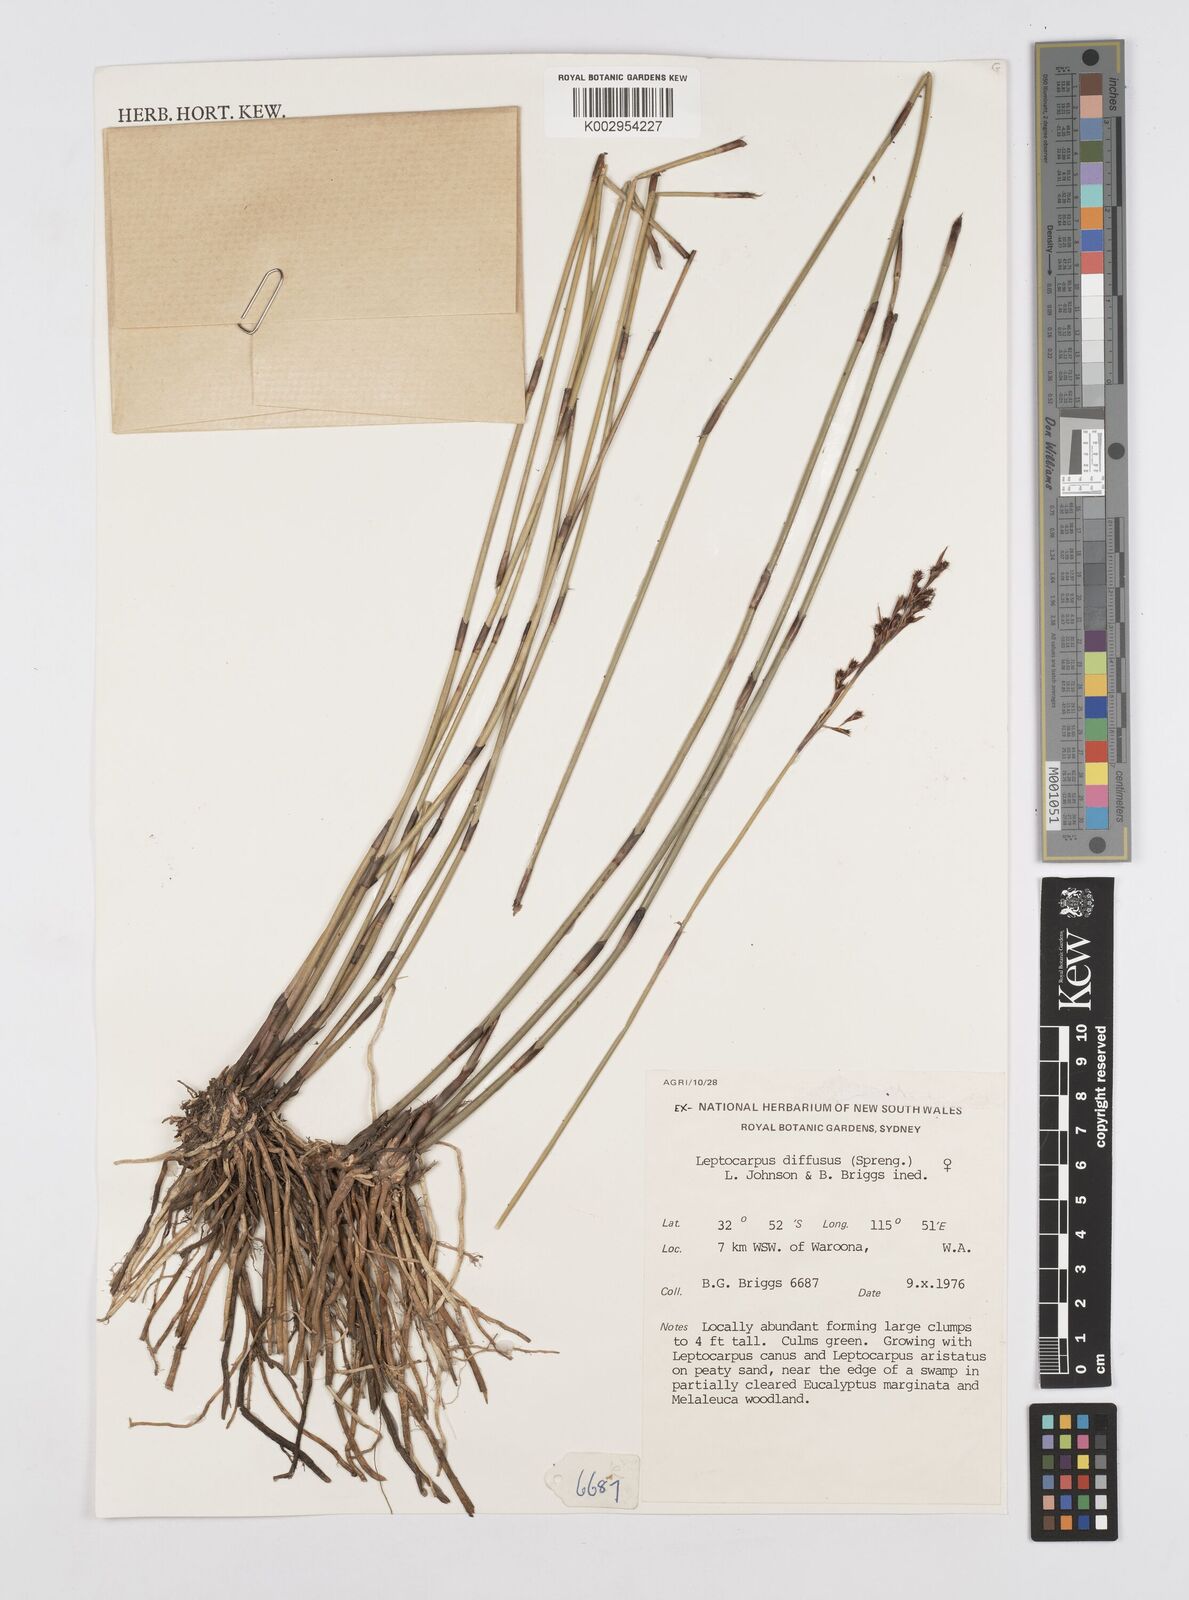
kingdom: Plantae
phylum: Tracheophyta
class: Liliopsida
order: Poales
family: Restionaceae
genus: Leptocarpus
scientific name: Leptocarpus laxus
